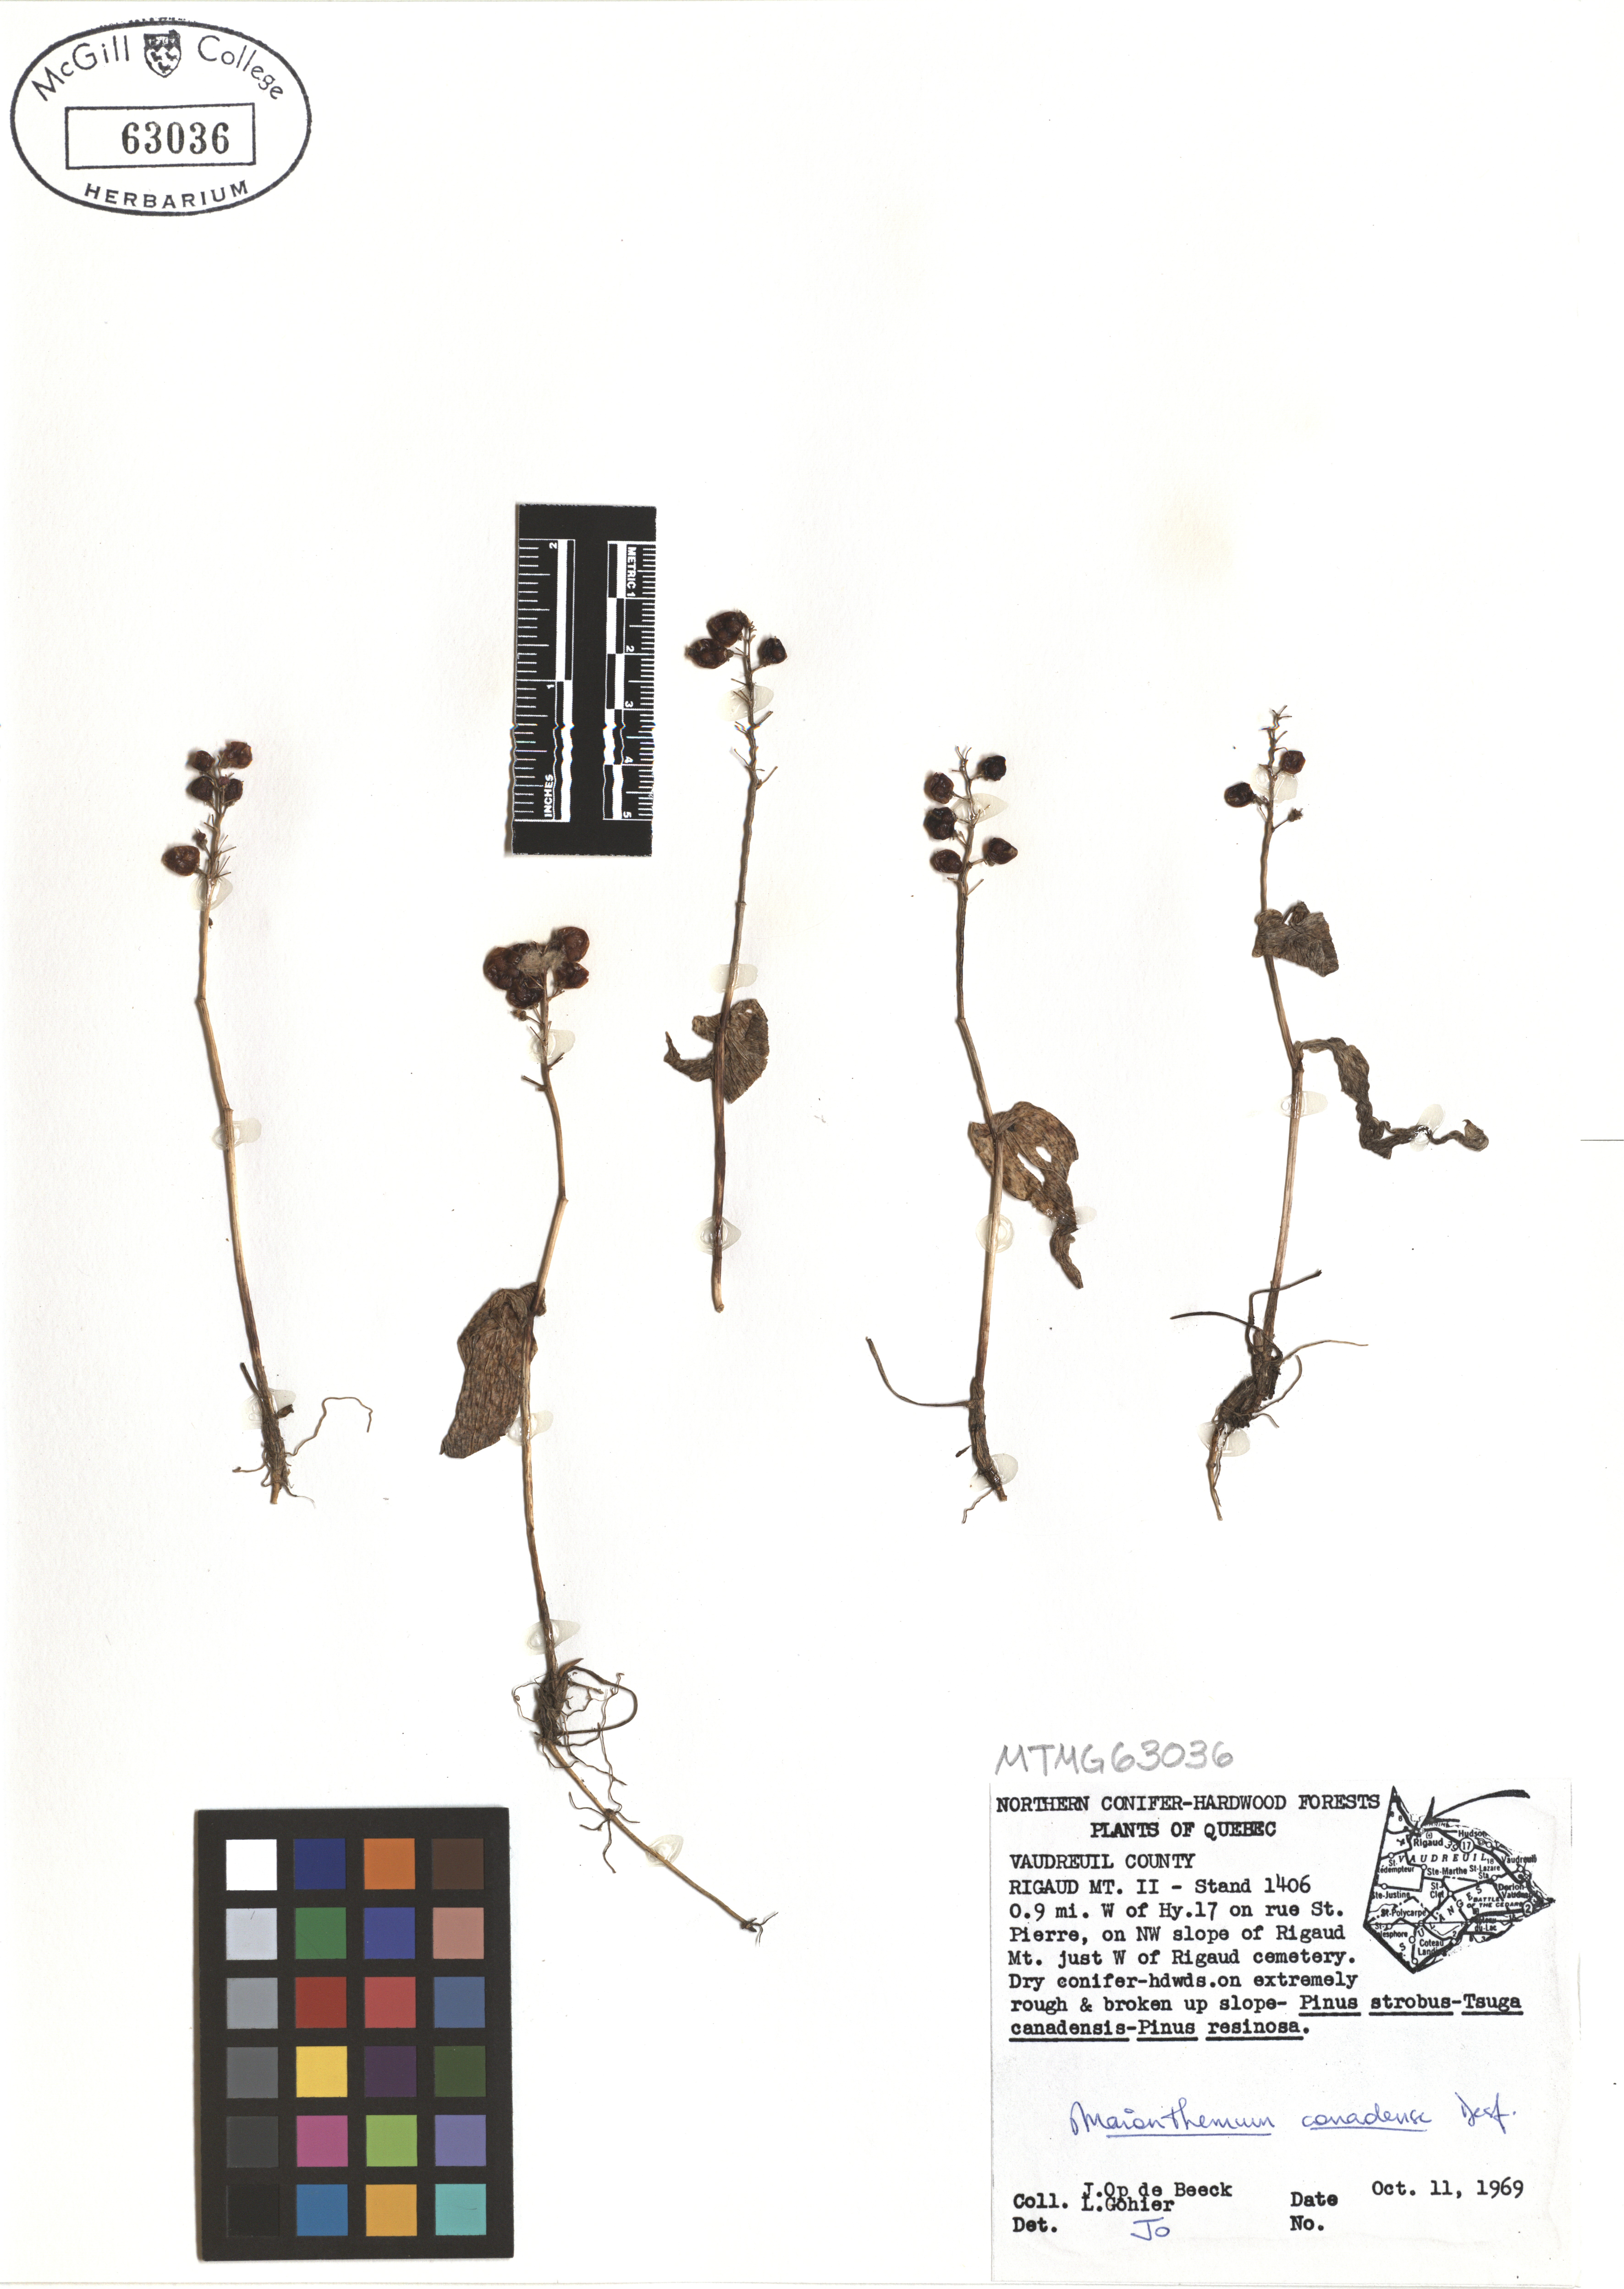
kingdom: Plantae
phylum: Tracheophyta
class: Liliopsida
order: Asparagales
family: Asparagaceae
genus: Maianthemum
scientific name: Maianthemum canadense
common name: False lily-of-the-valley
